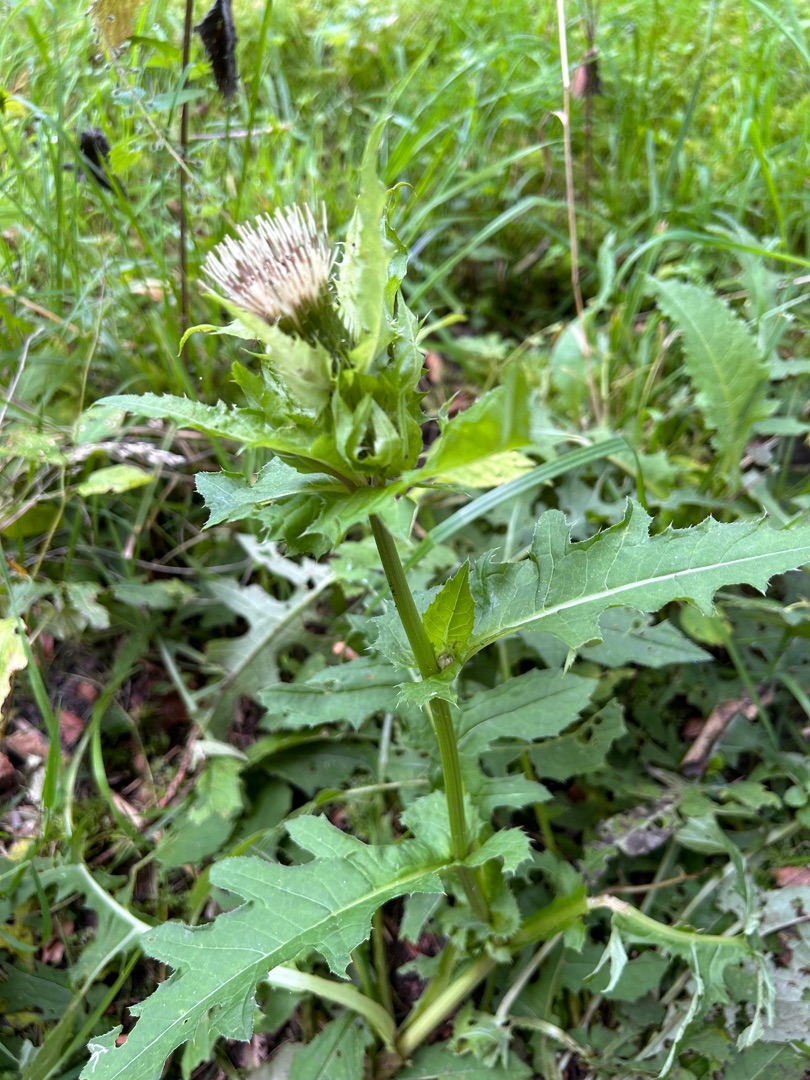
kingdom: Plantae
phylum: Tracheophyta
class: Magnoliopsida
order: Asterales
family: Asteraceae
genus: Cirsium
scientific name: Cirsium oleraceum
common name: Kål-tidsel
